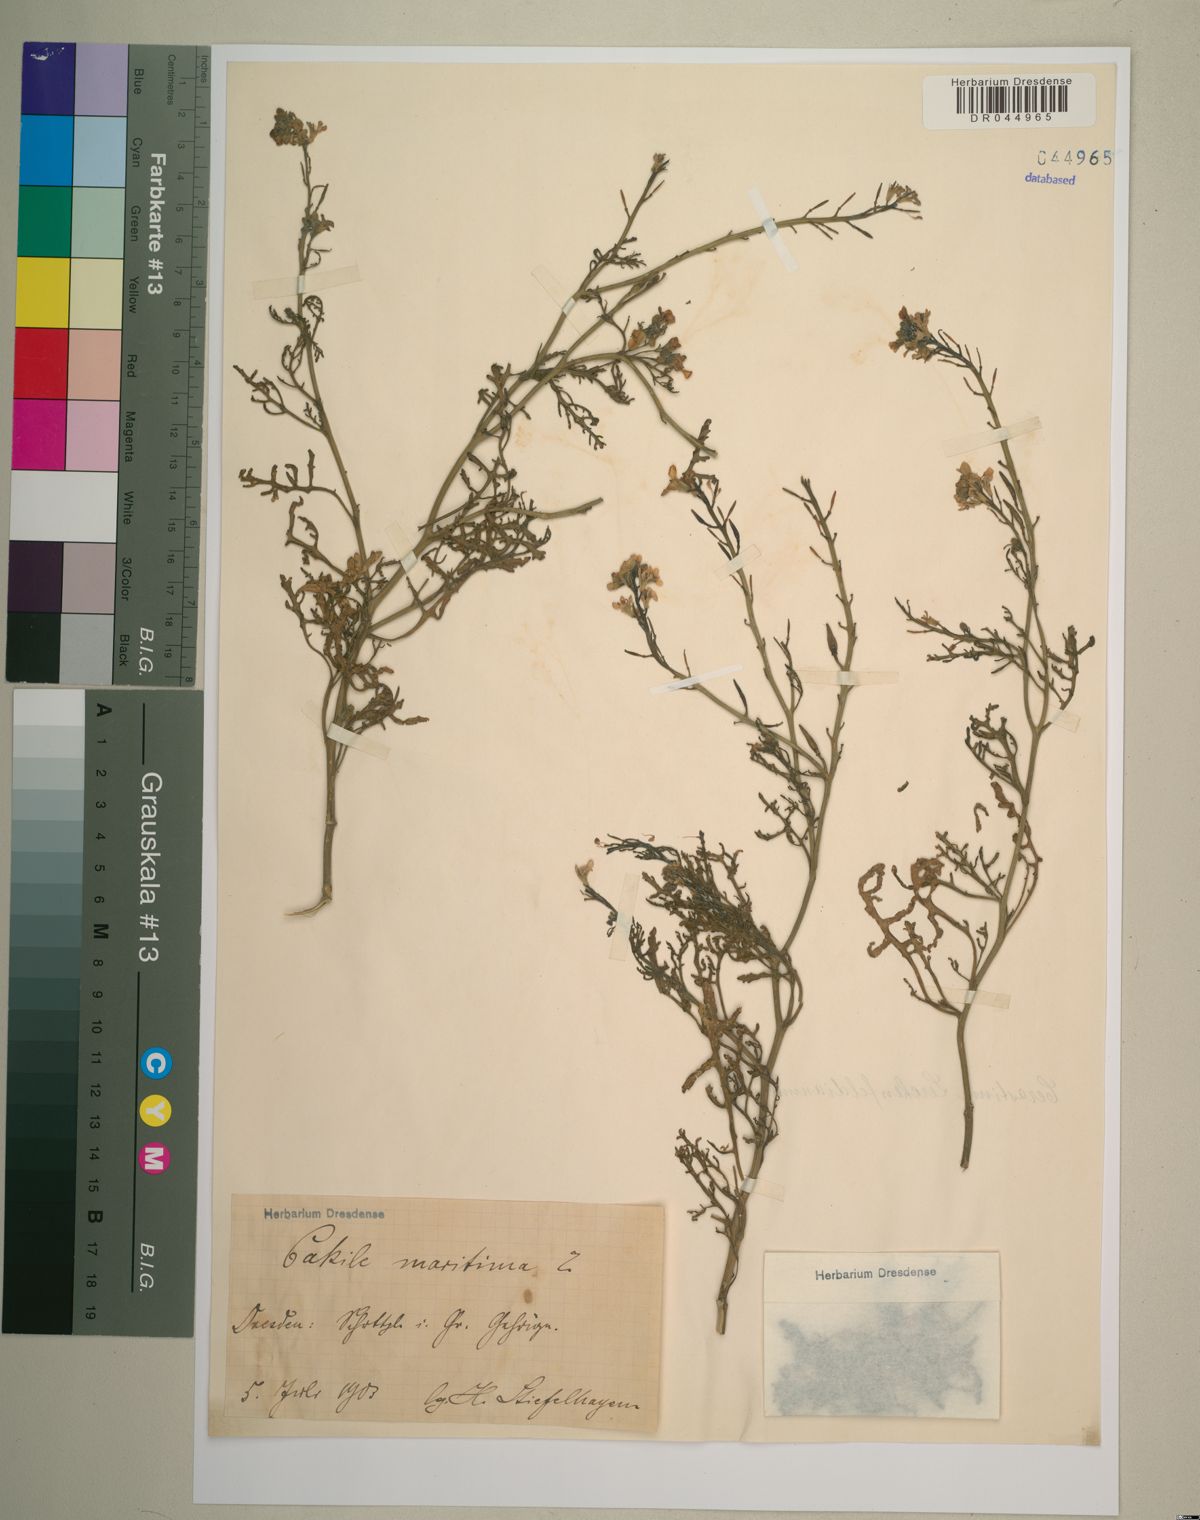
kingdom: Plantae
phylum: Tracheophyta
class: Magnoliopsida
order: Brassicales
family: Brassicaceae
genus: Cakile
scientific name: Cakile maritima
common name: Sea rocket
